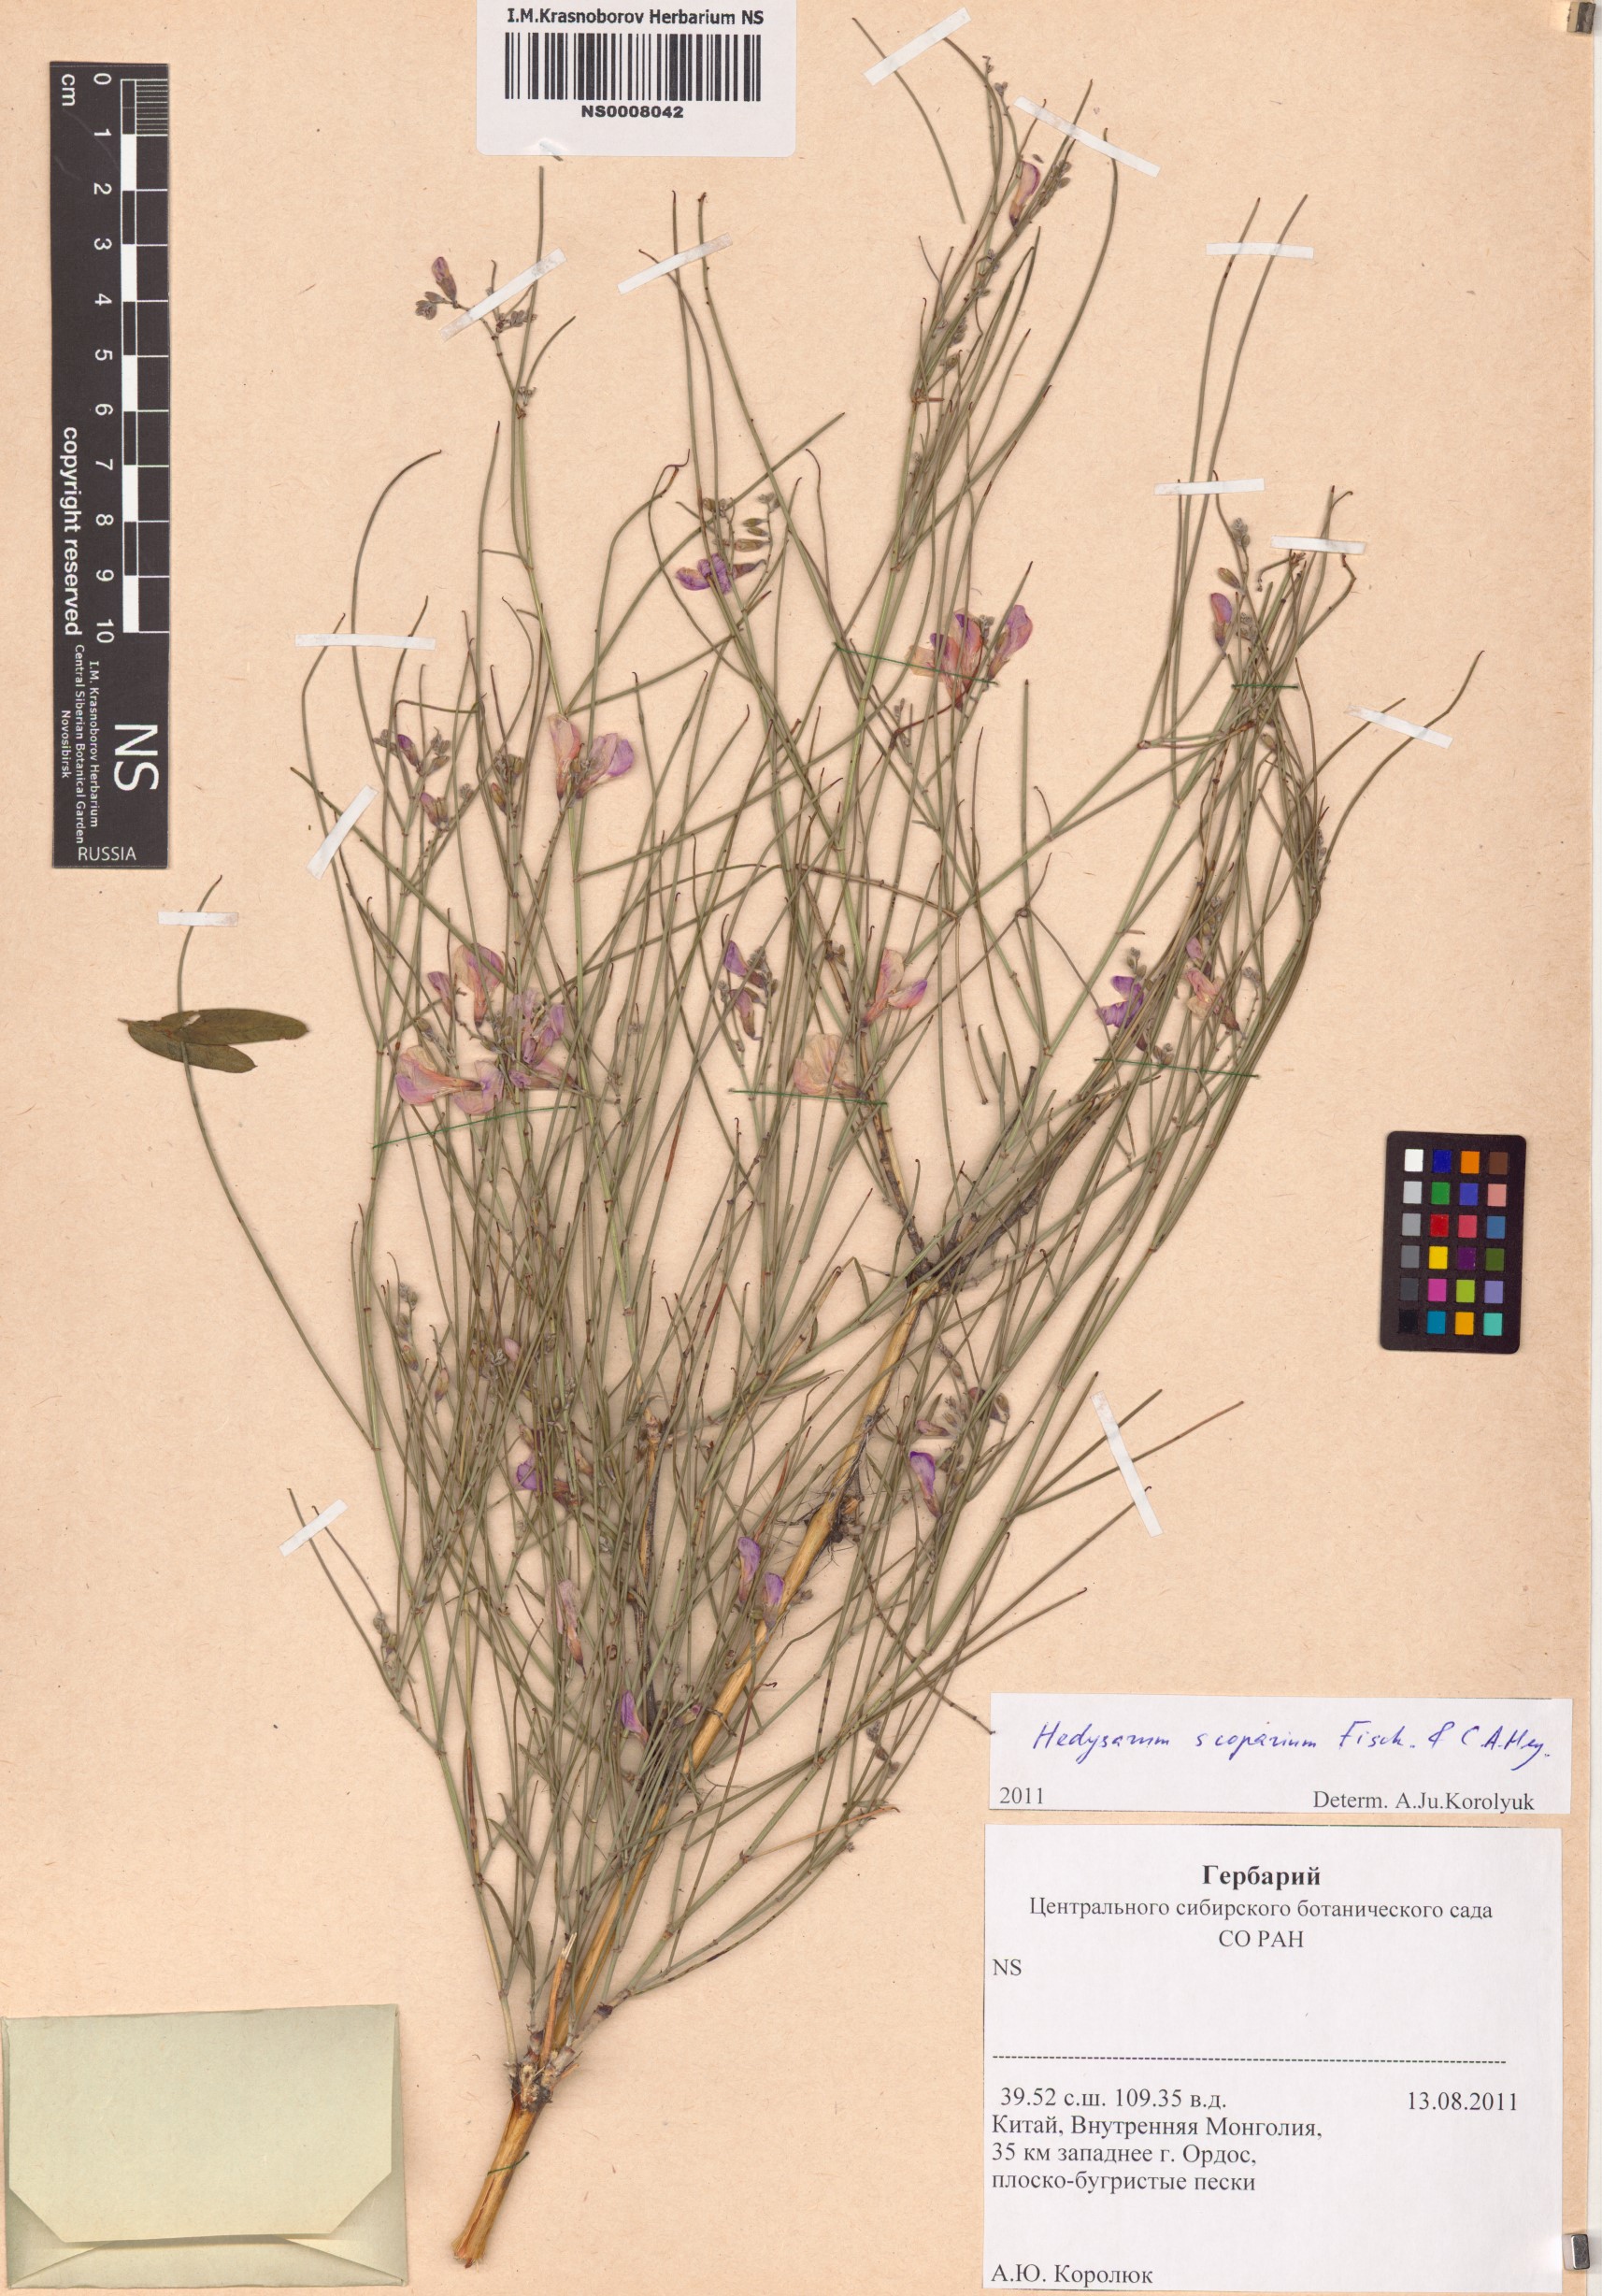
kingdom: Plantae
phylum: Tracheophyta
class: Magnoliopsida
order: Fabales
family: Fabaceae
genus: Corethrodendron
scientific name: Corethrodendron scoparium
